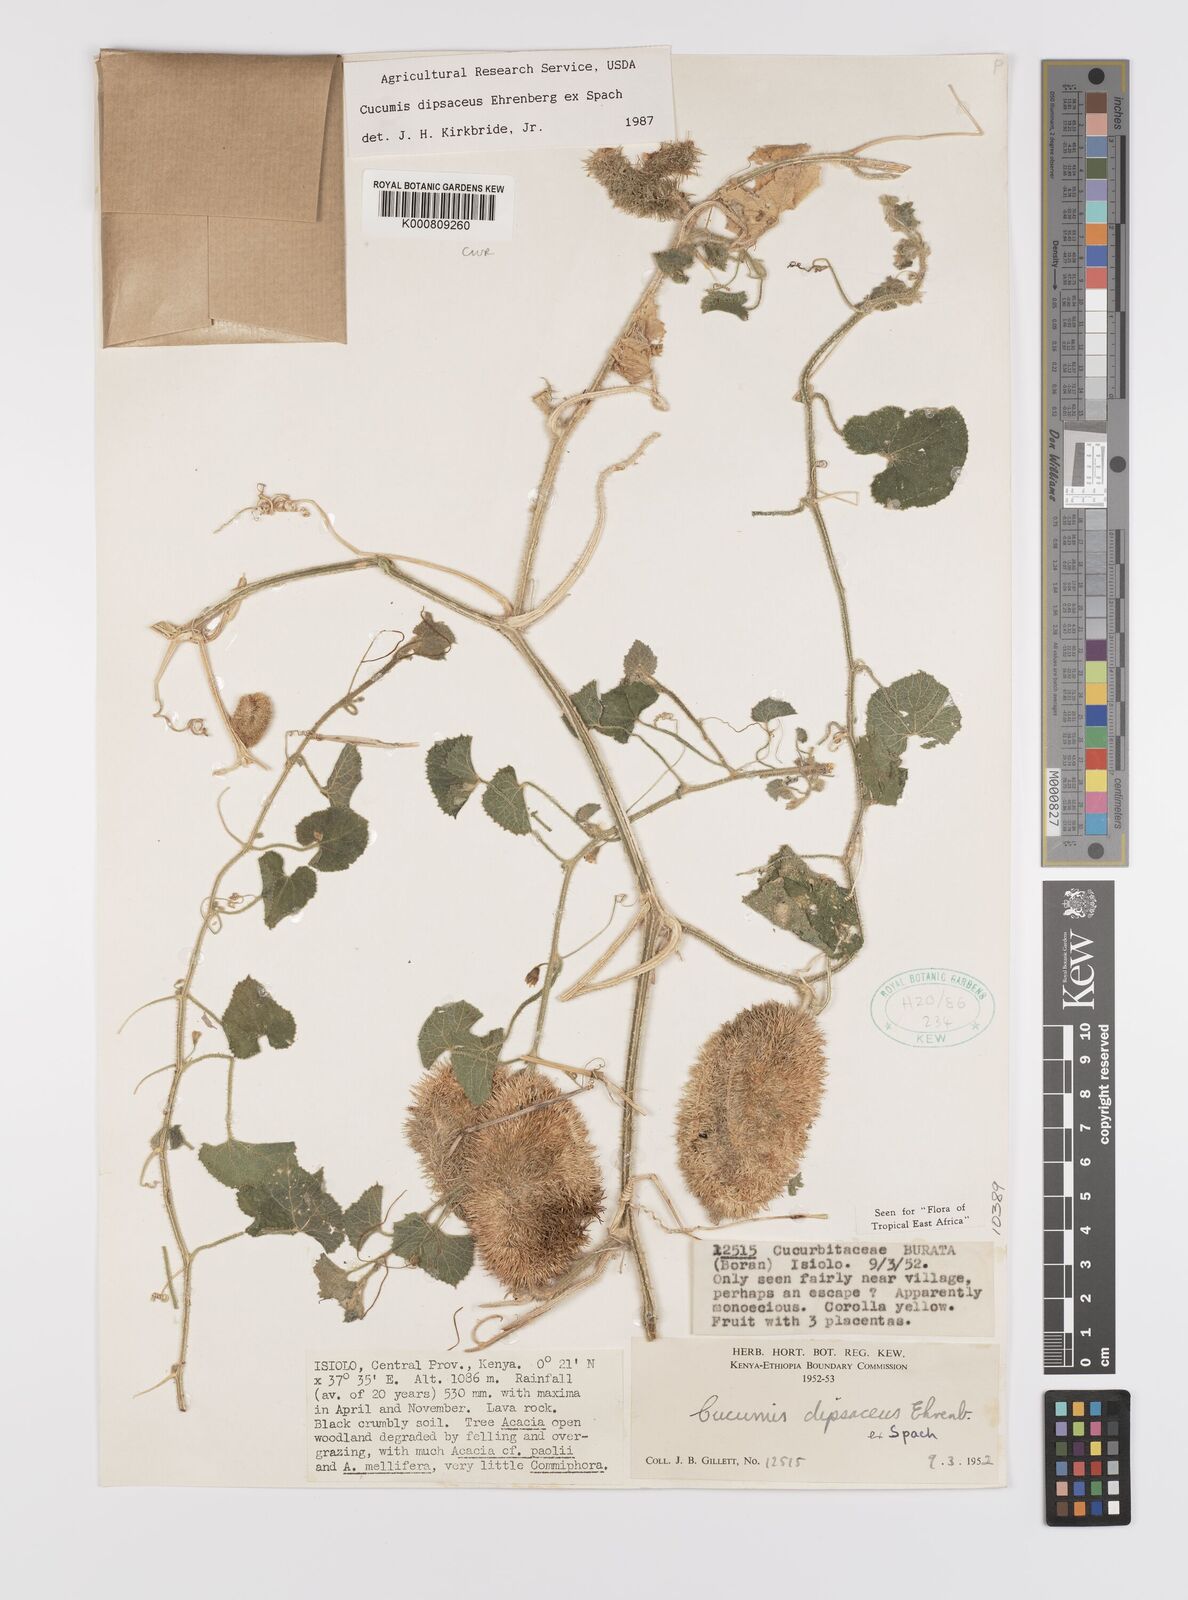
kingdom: Plantae
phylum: Tracheophyta
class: Magnoliopsida
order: Cucurbitales
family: Cucurbitaceae
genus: Cucumis
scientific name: Cucumis dipsaceus
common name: Hedgehog gourd
